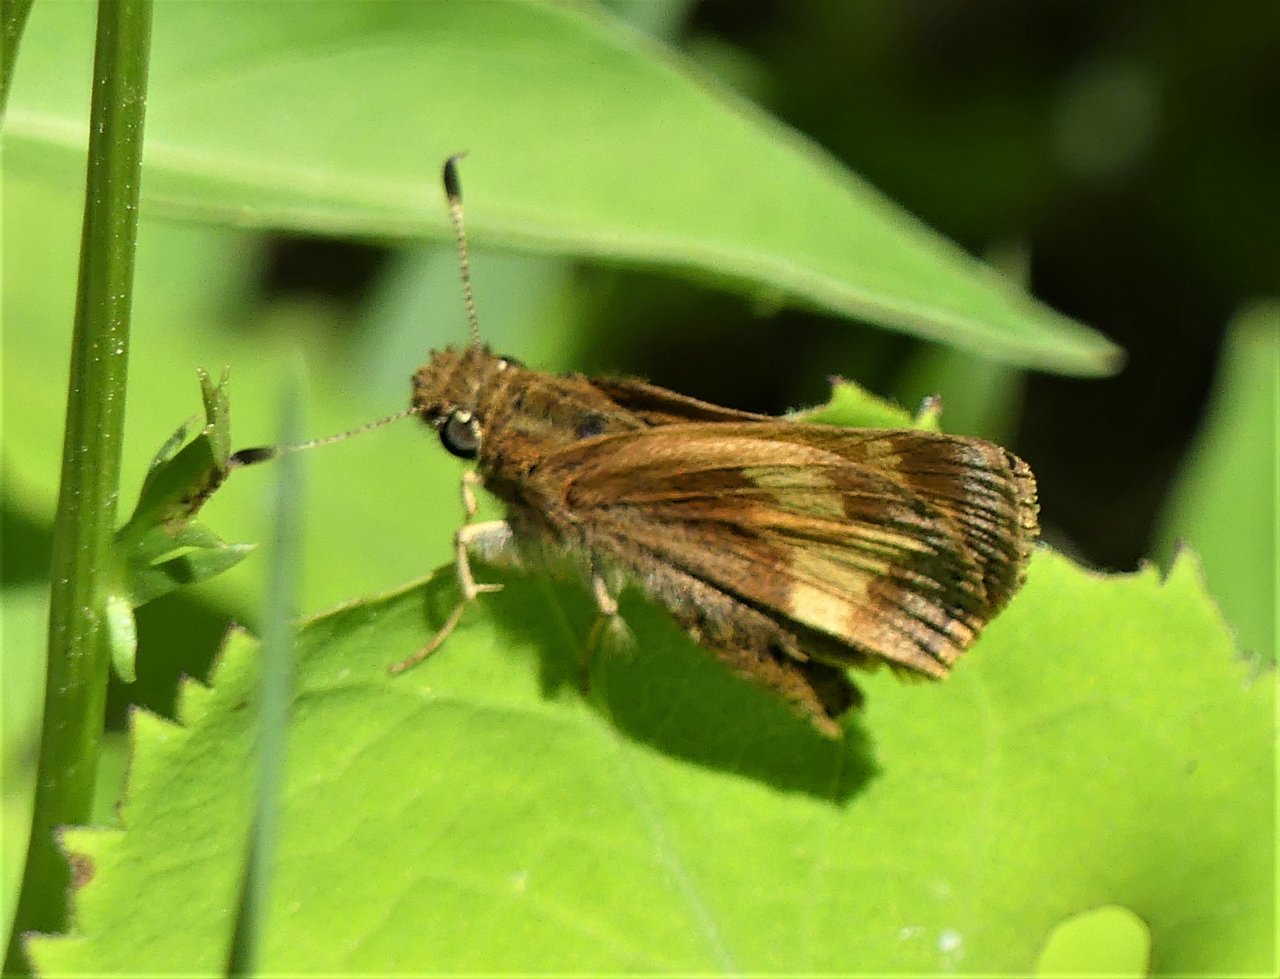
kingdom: Animalia
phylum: Arthropoda
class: Insecta
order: Lepidoptera
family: Hesperiidae
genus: Lon
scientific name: Lon hobomok
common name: Hobomok Skipper
